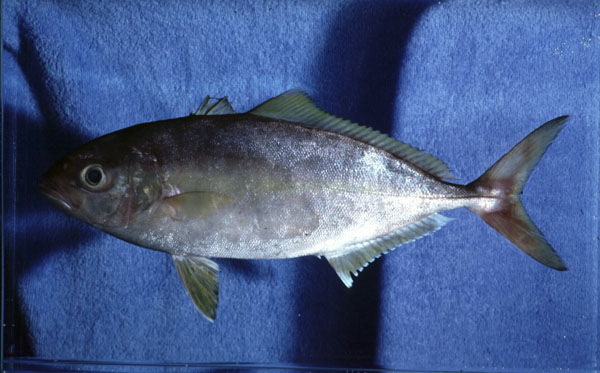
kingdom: Animalia
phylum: Chordata
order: Perciformes
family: Carangidae
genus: Seriola
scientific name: Seriola carpenteri
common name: Guinean amberjack
